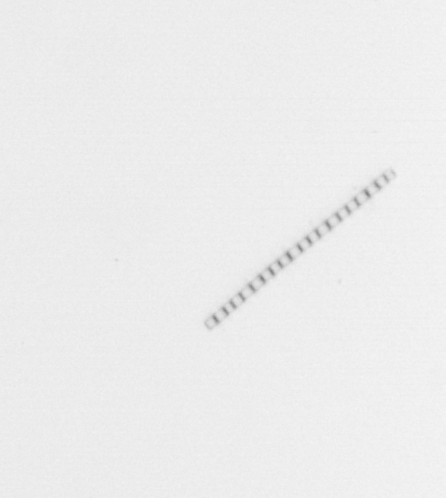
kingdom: Chromista
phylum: Ochrophyta
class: Bacillariophyceae
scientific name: Bacillariophyceae
